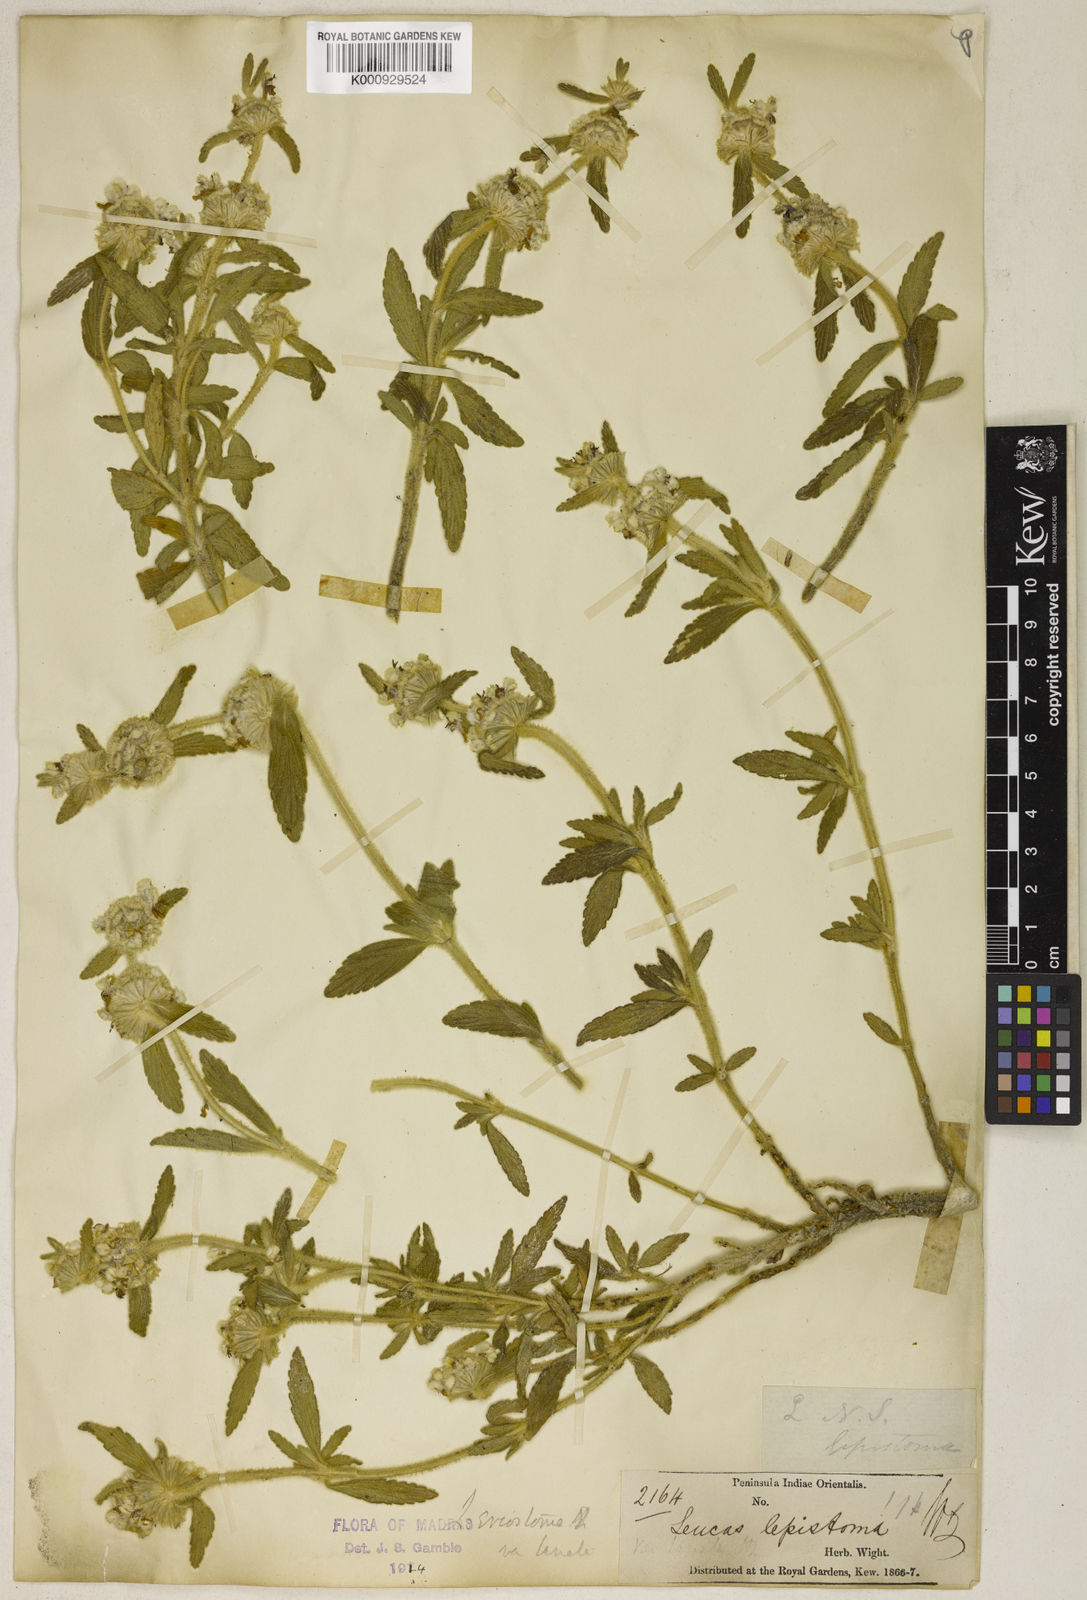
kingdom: Plantae
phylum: Tracheophyta
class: Magnoliopsida
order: Lamiales
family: Lamiaceae
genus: Leucas
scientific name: Leucas eriostoma
